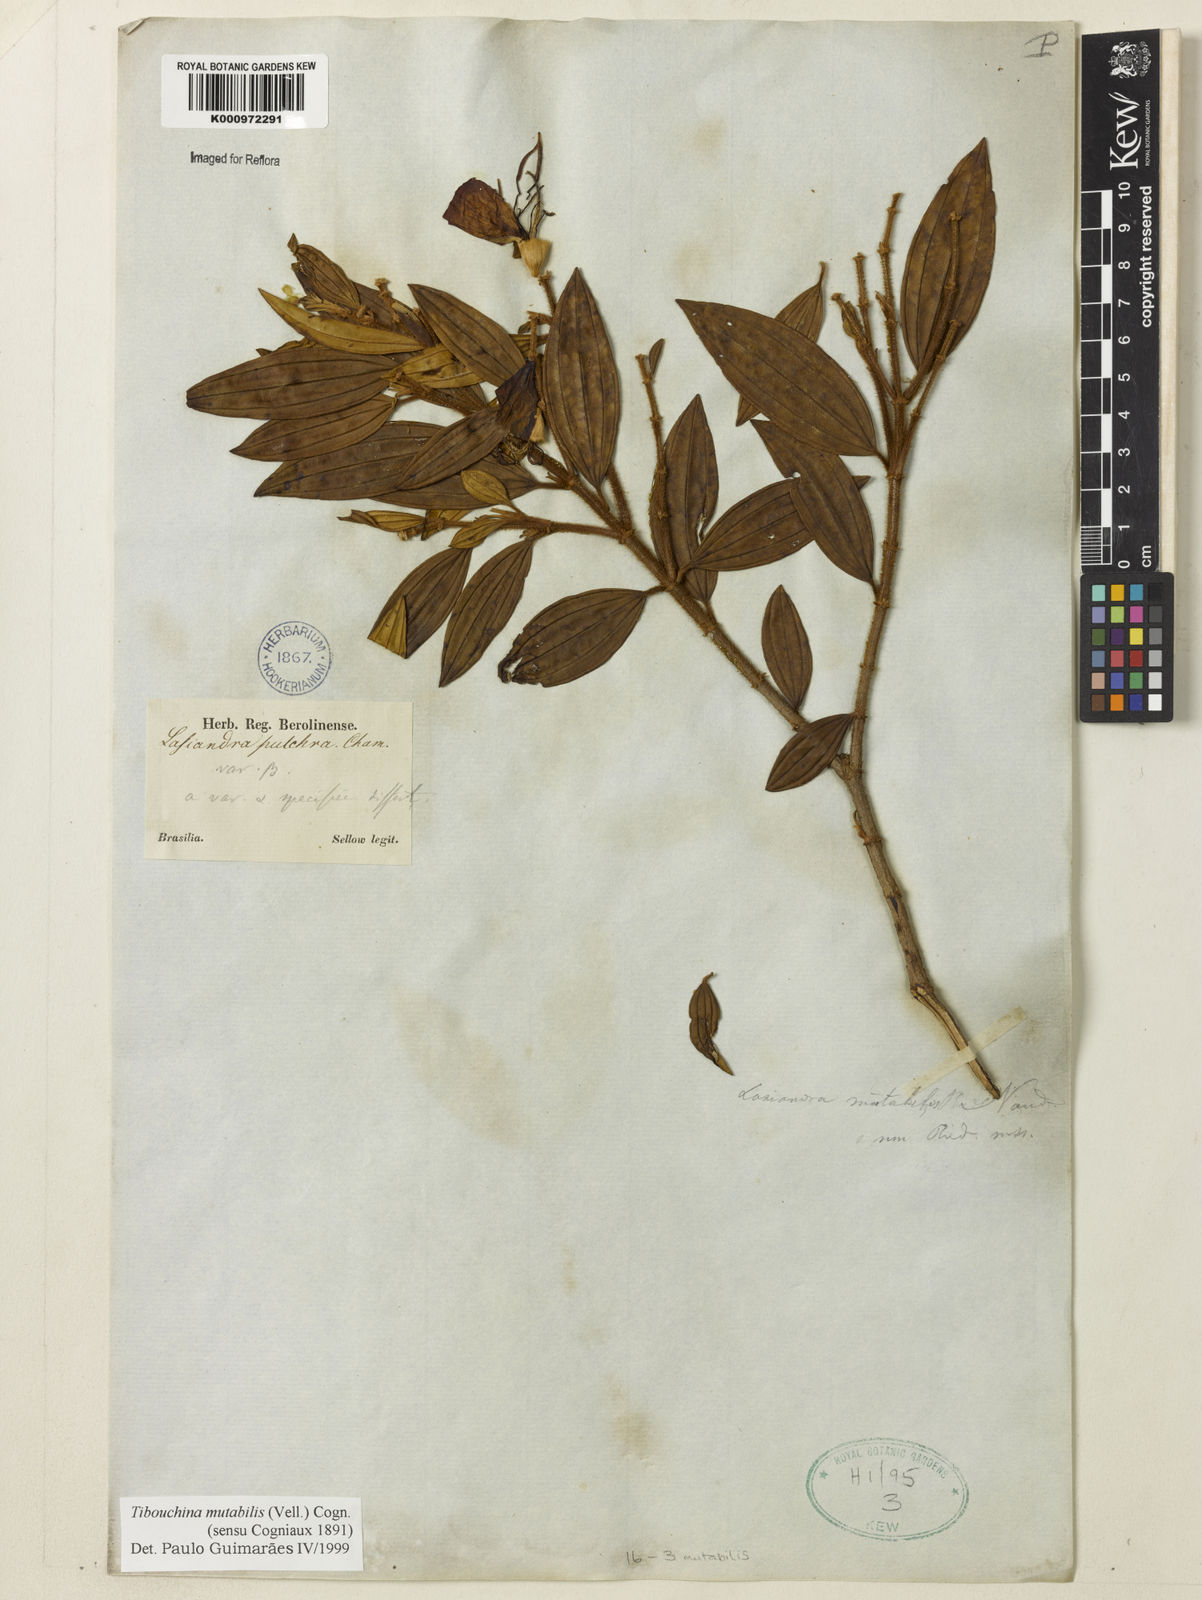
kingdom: Plantae
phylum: Tracheophyta
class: Magnoliopsida
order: Myrtales
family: Melastomataceae
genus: Pleroma
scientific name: Pleroma mutabile
